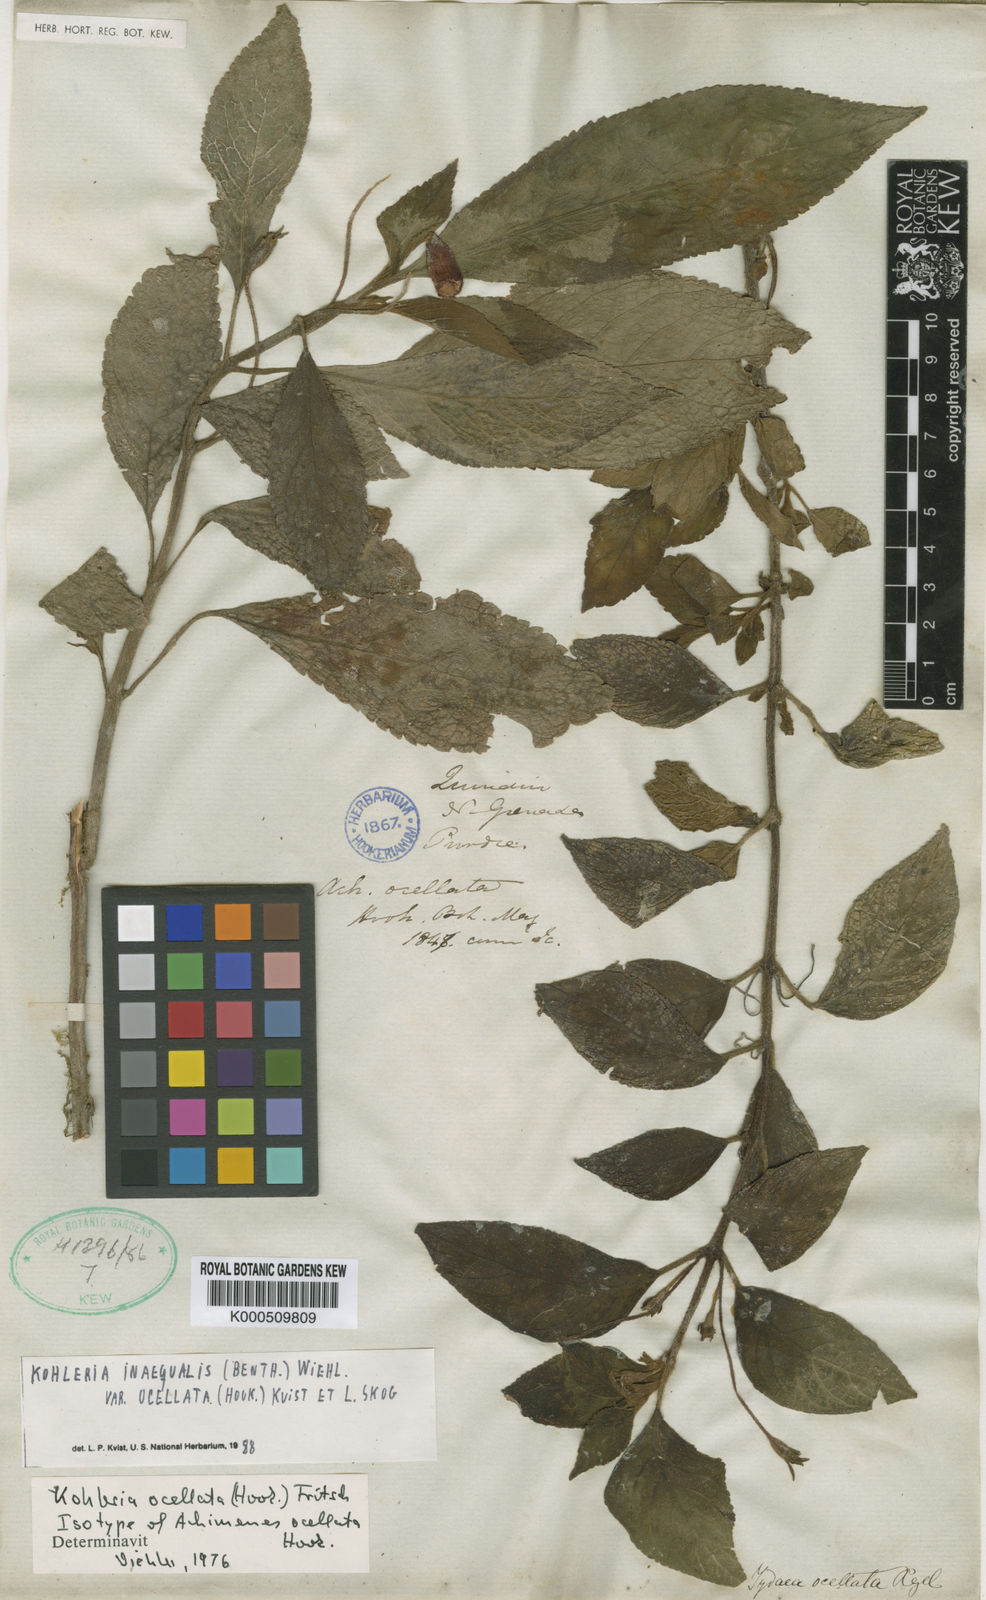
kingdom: Plantae
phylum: Tracheophyta
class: Magnoliopsida
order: Lamiales
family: Gesneriaceae
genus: Kohleria
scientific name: Kohleria inaequalis
